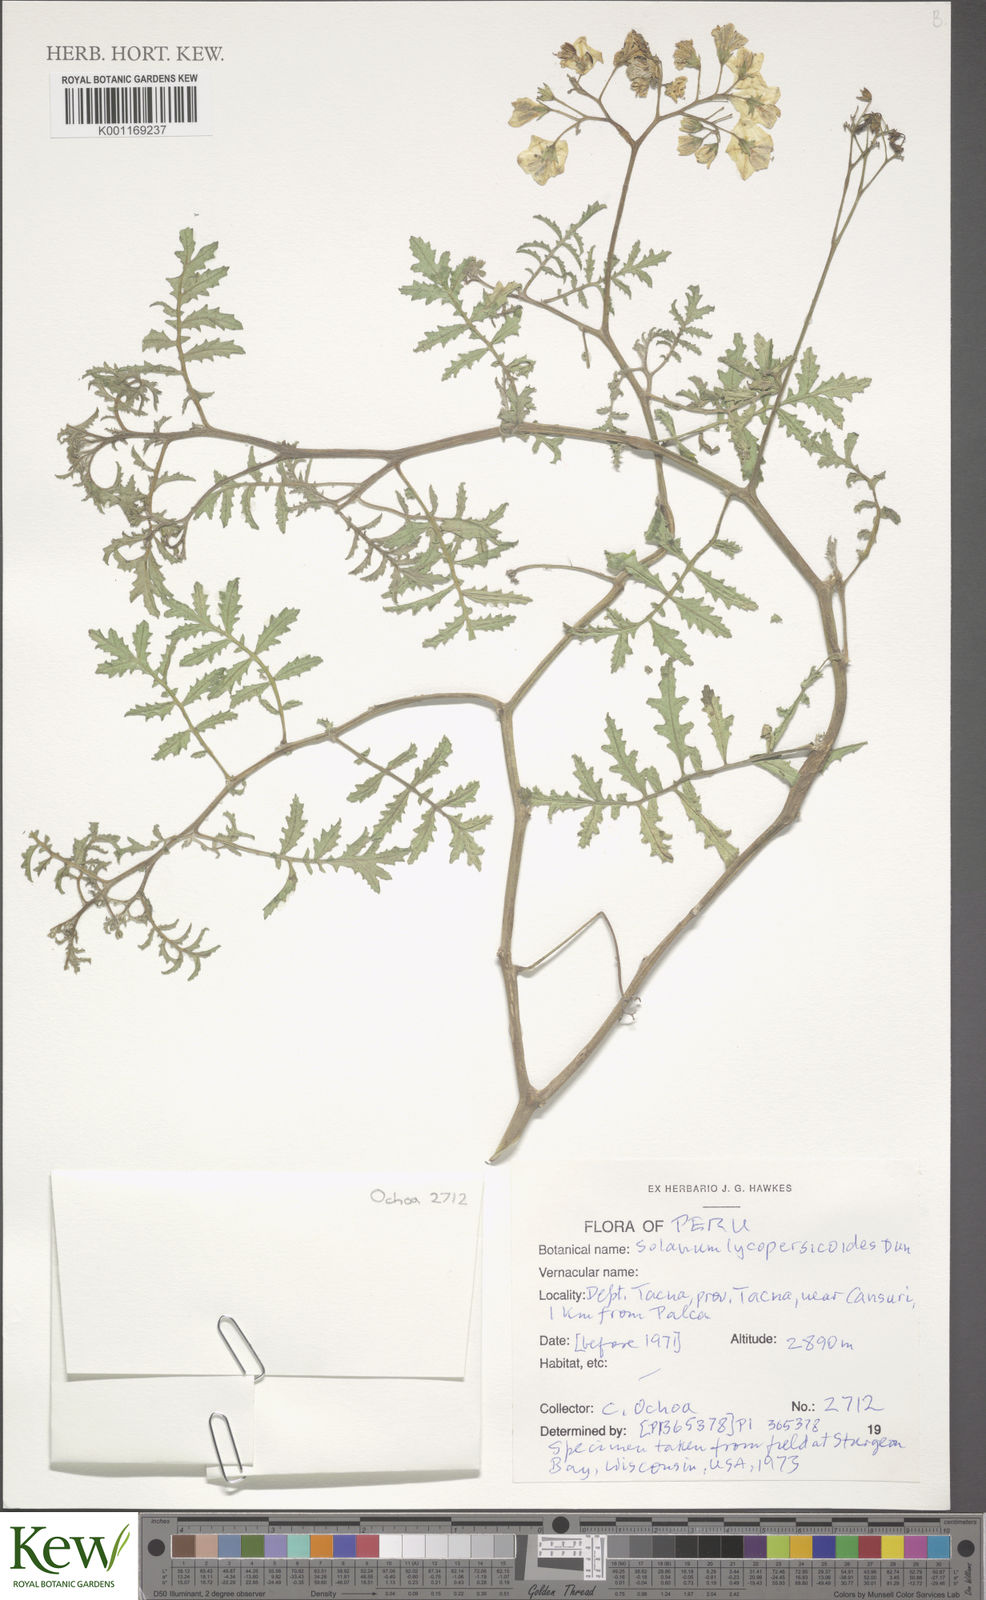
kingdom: Plantae
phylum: Tracheophyta
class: Magnoliopsida
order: Solanales
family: Solanaceae
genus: Solanum
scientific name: Solanum lycopersicoides
